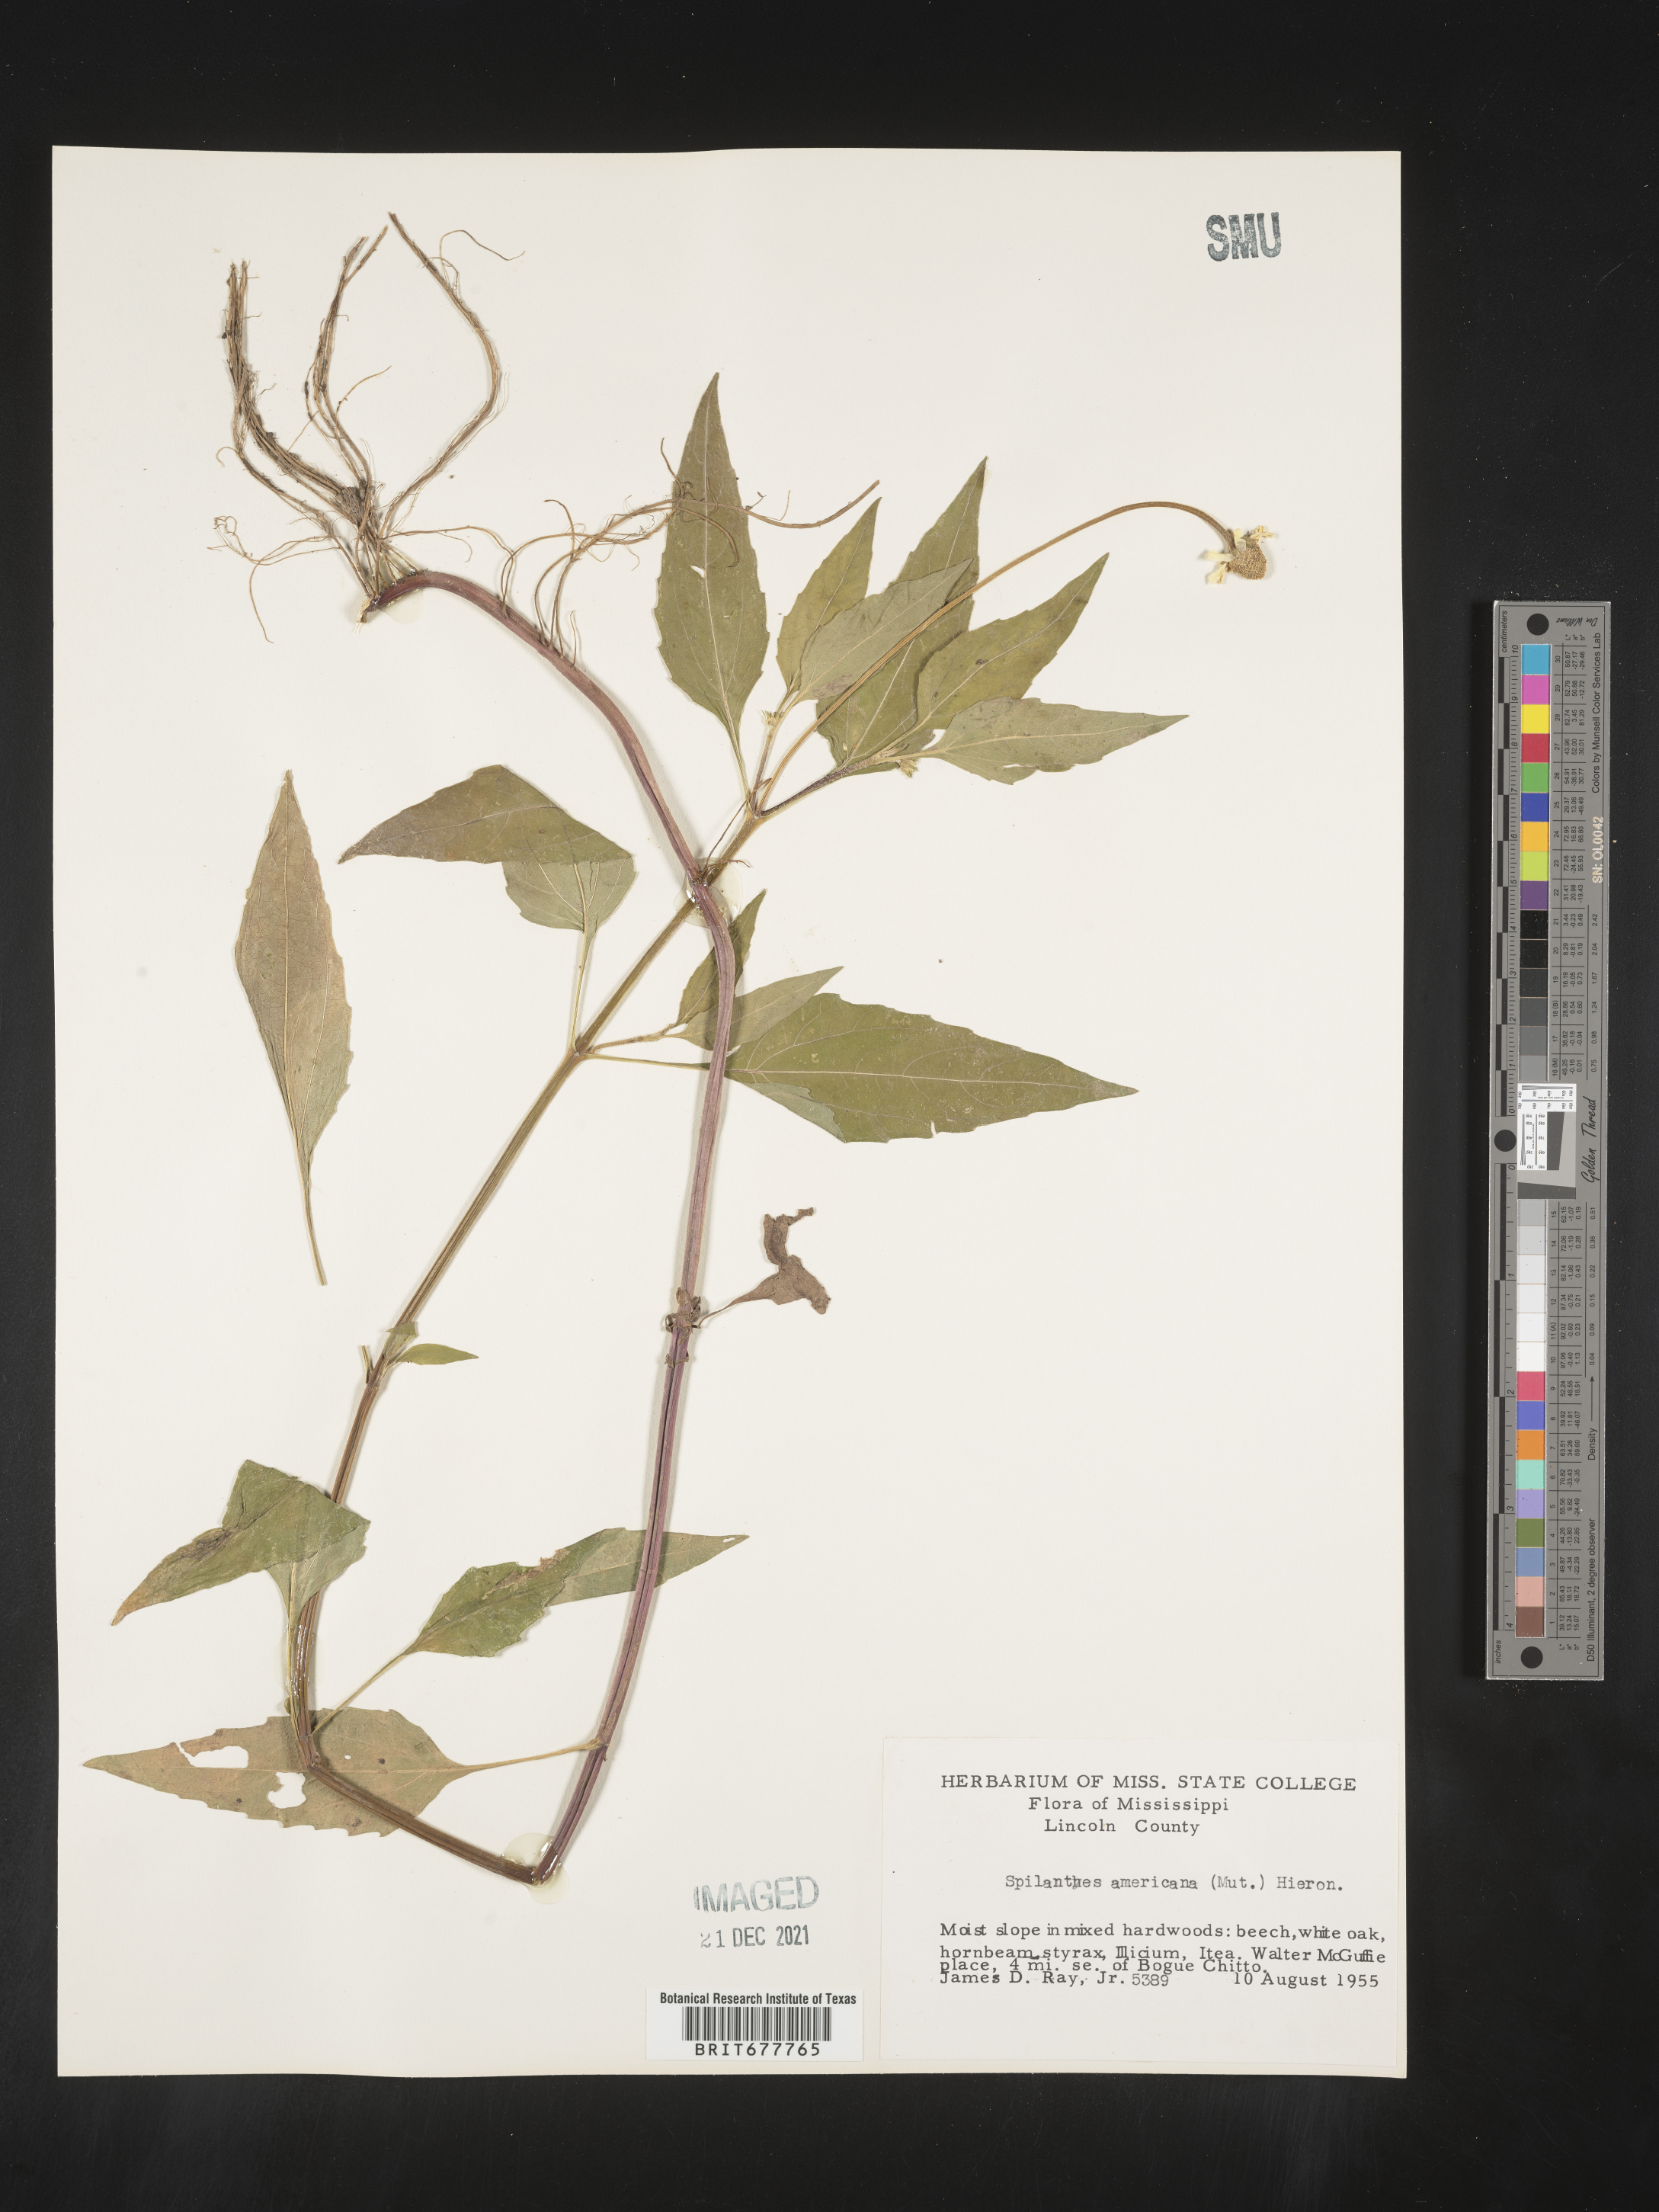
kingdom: Plantae
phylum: Tracheophyta
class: Magnoliopsida
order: Asterales
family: Asteraceae
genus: Spilanthes
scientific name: Spilanthes
